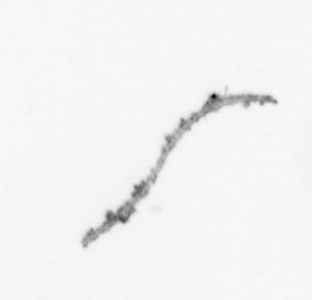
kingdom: Chromista
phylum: Ochrophyta
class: Bacillariophyceae
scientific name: Bacillariophyceae
